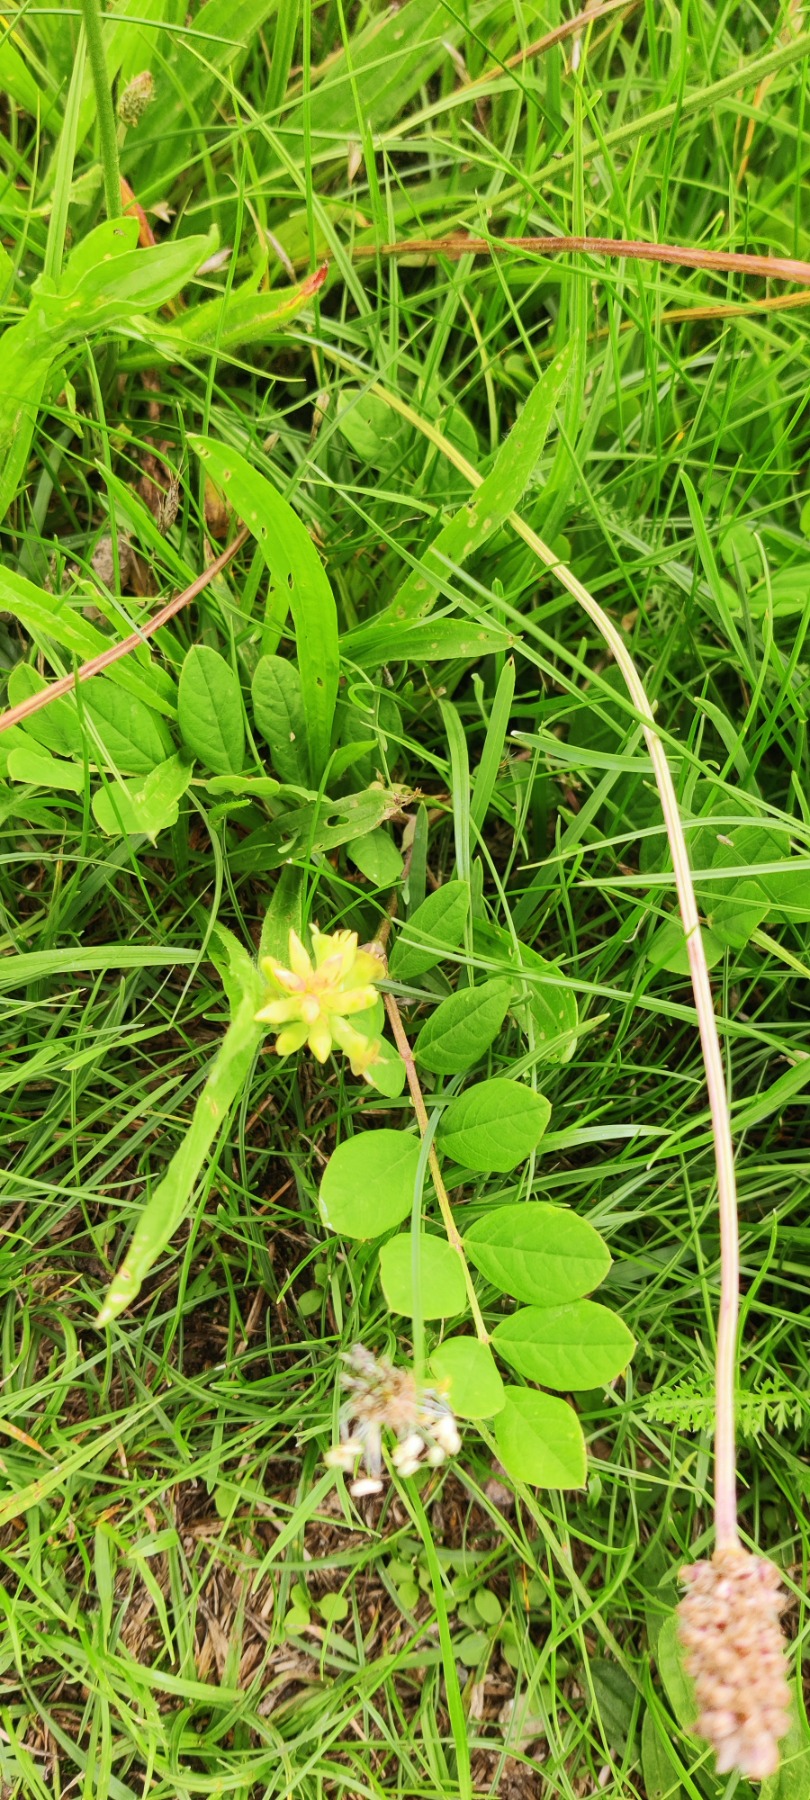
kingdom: Plantae
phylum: Tracheophyta
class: Magnoliopsida
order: Fabales
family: Fabaceae
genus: Astragalus
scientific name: Astragalus glycyphyllos
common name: Sød astragel
